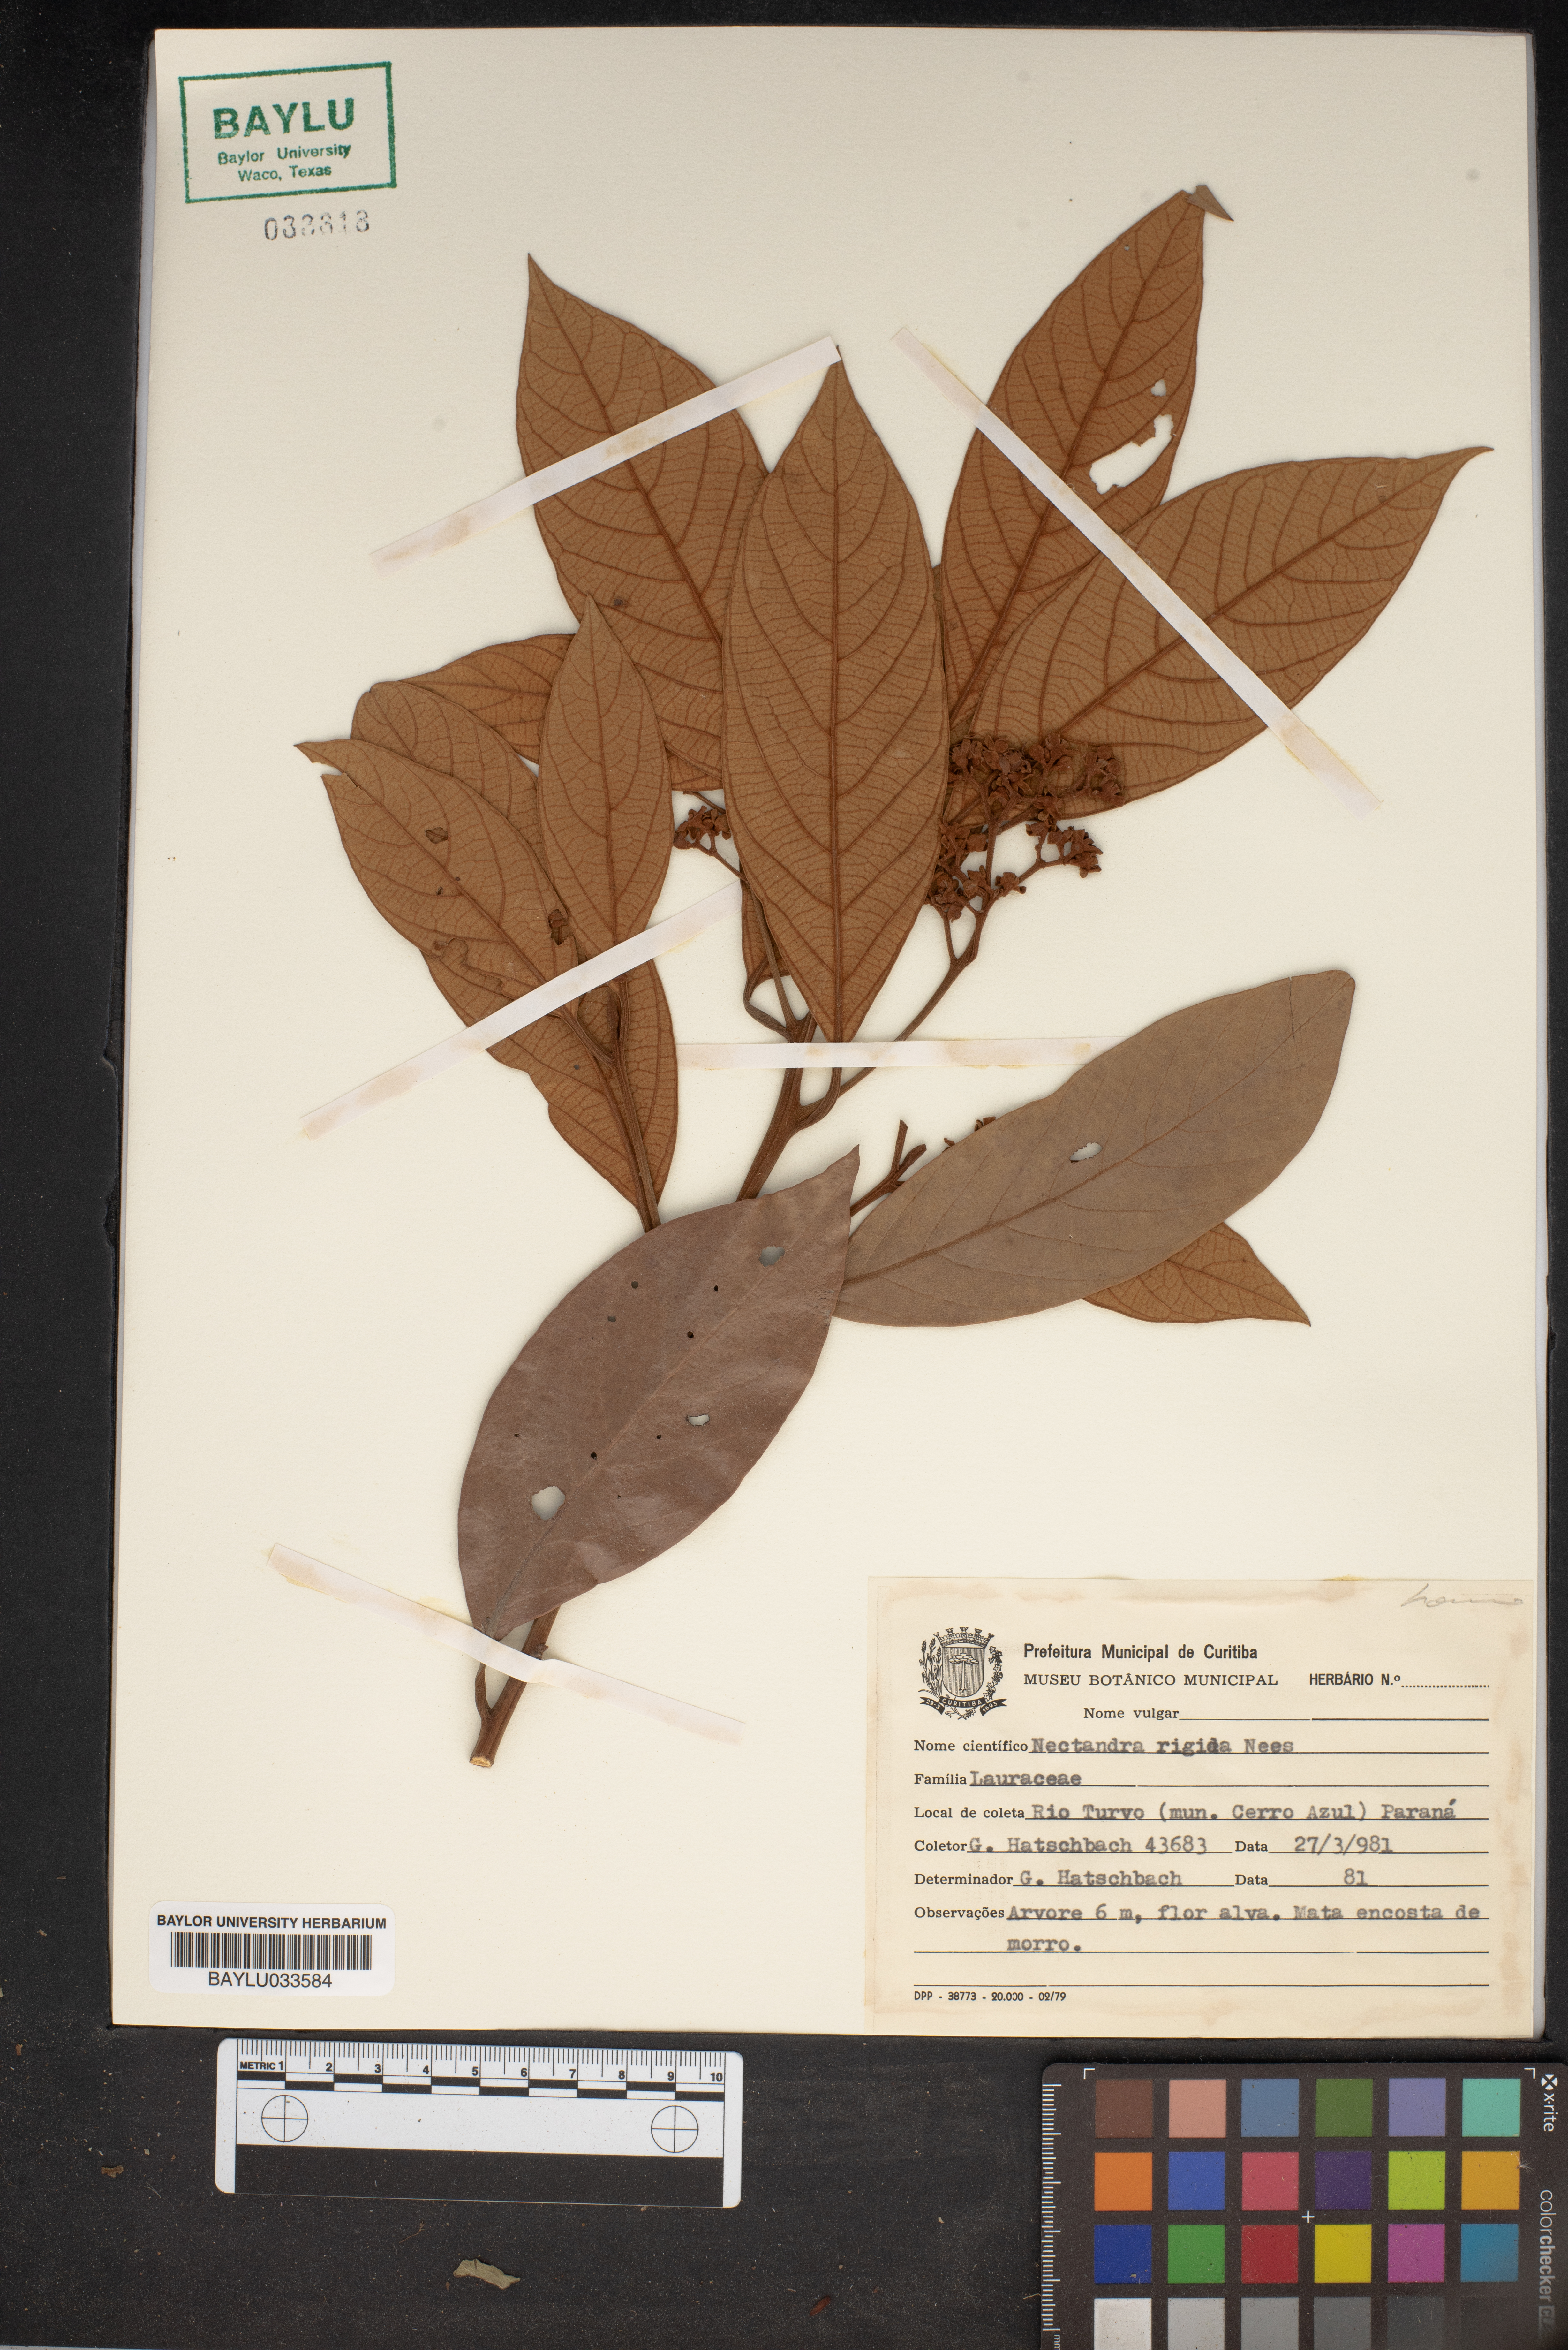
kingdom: Plantae
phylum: Tracheophyta
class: Magnoliopsida
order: Laurales
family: Lauraceae
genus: Nectandra
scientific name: Nectandra oppositifolia
